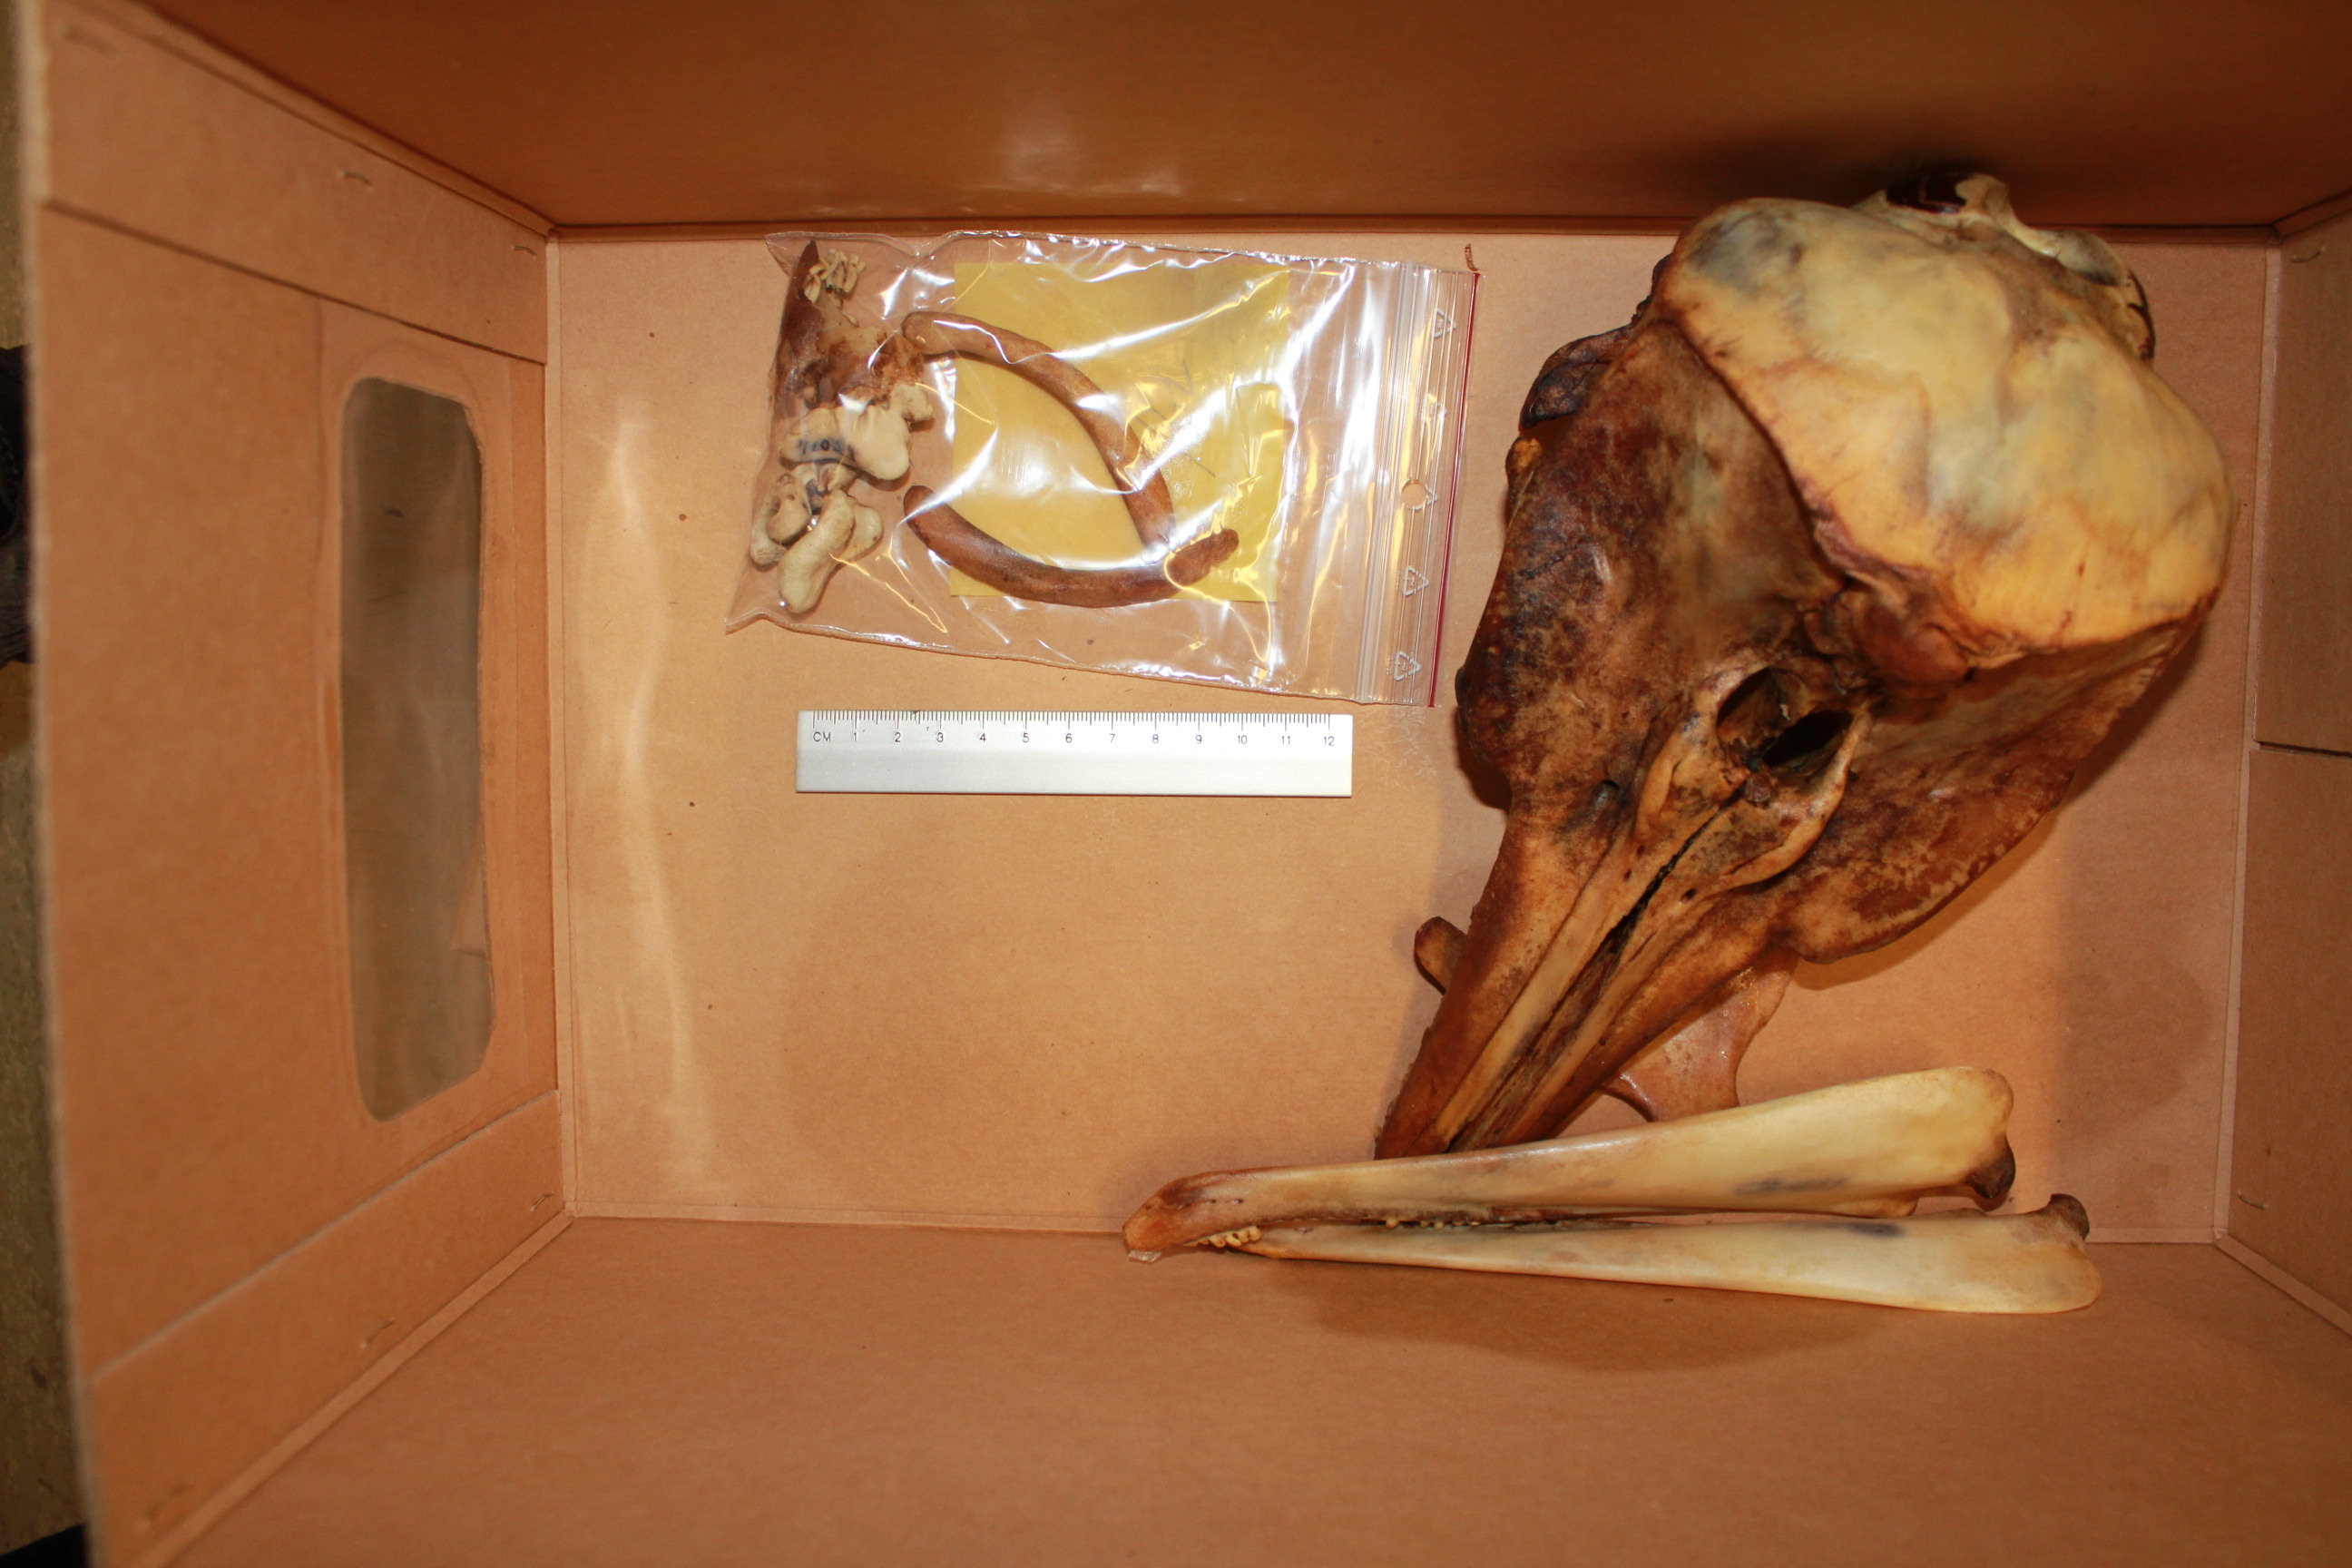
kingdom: Animalia
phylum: Chordata
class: Mammalia
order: Cetacea
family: Phocoenidae
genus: Phocoena
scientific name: Phocoena phocoena
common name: Harbor porpoise
